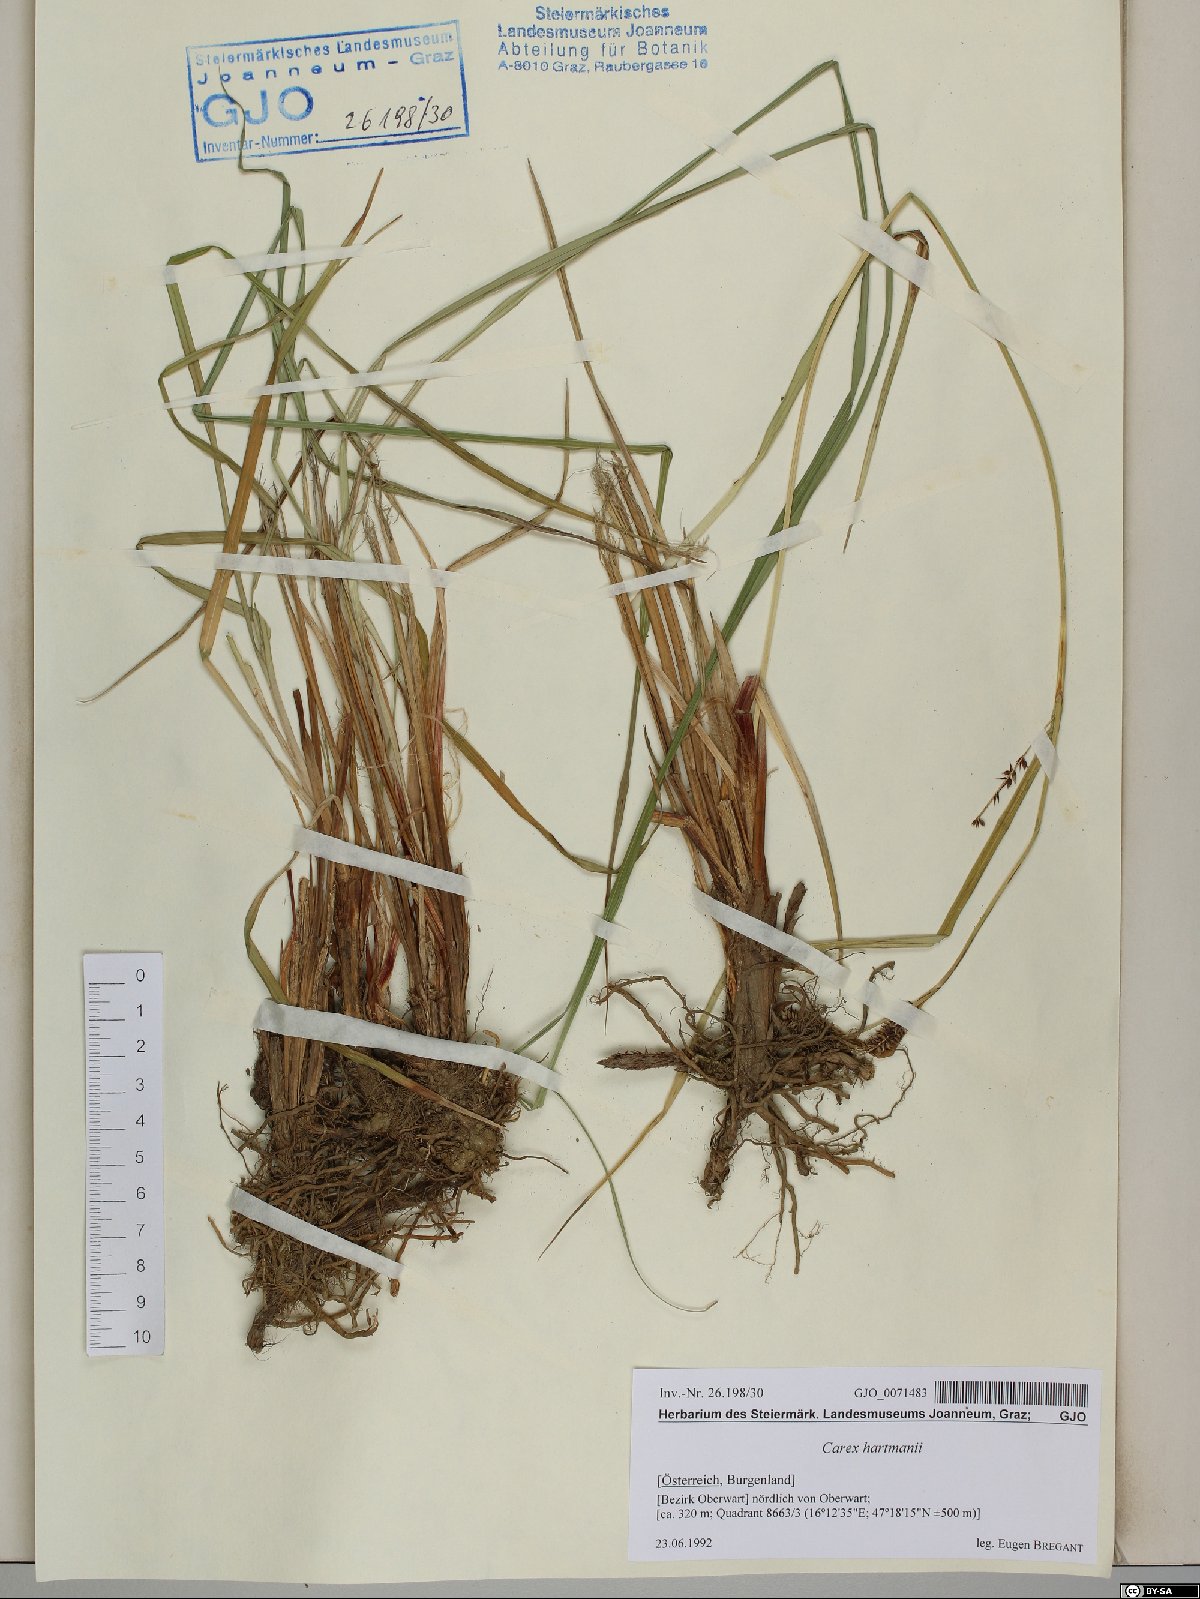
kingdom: Plantae
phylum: Tracheophyta
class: Liliopsida
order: Poales
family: Cyperaceae
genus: Carex
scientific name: Carex hartmaniorum
